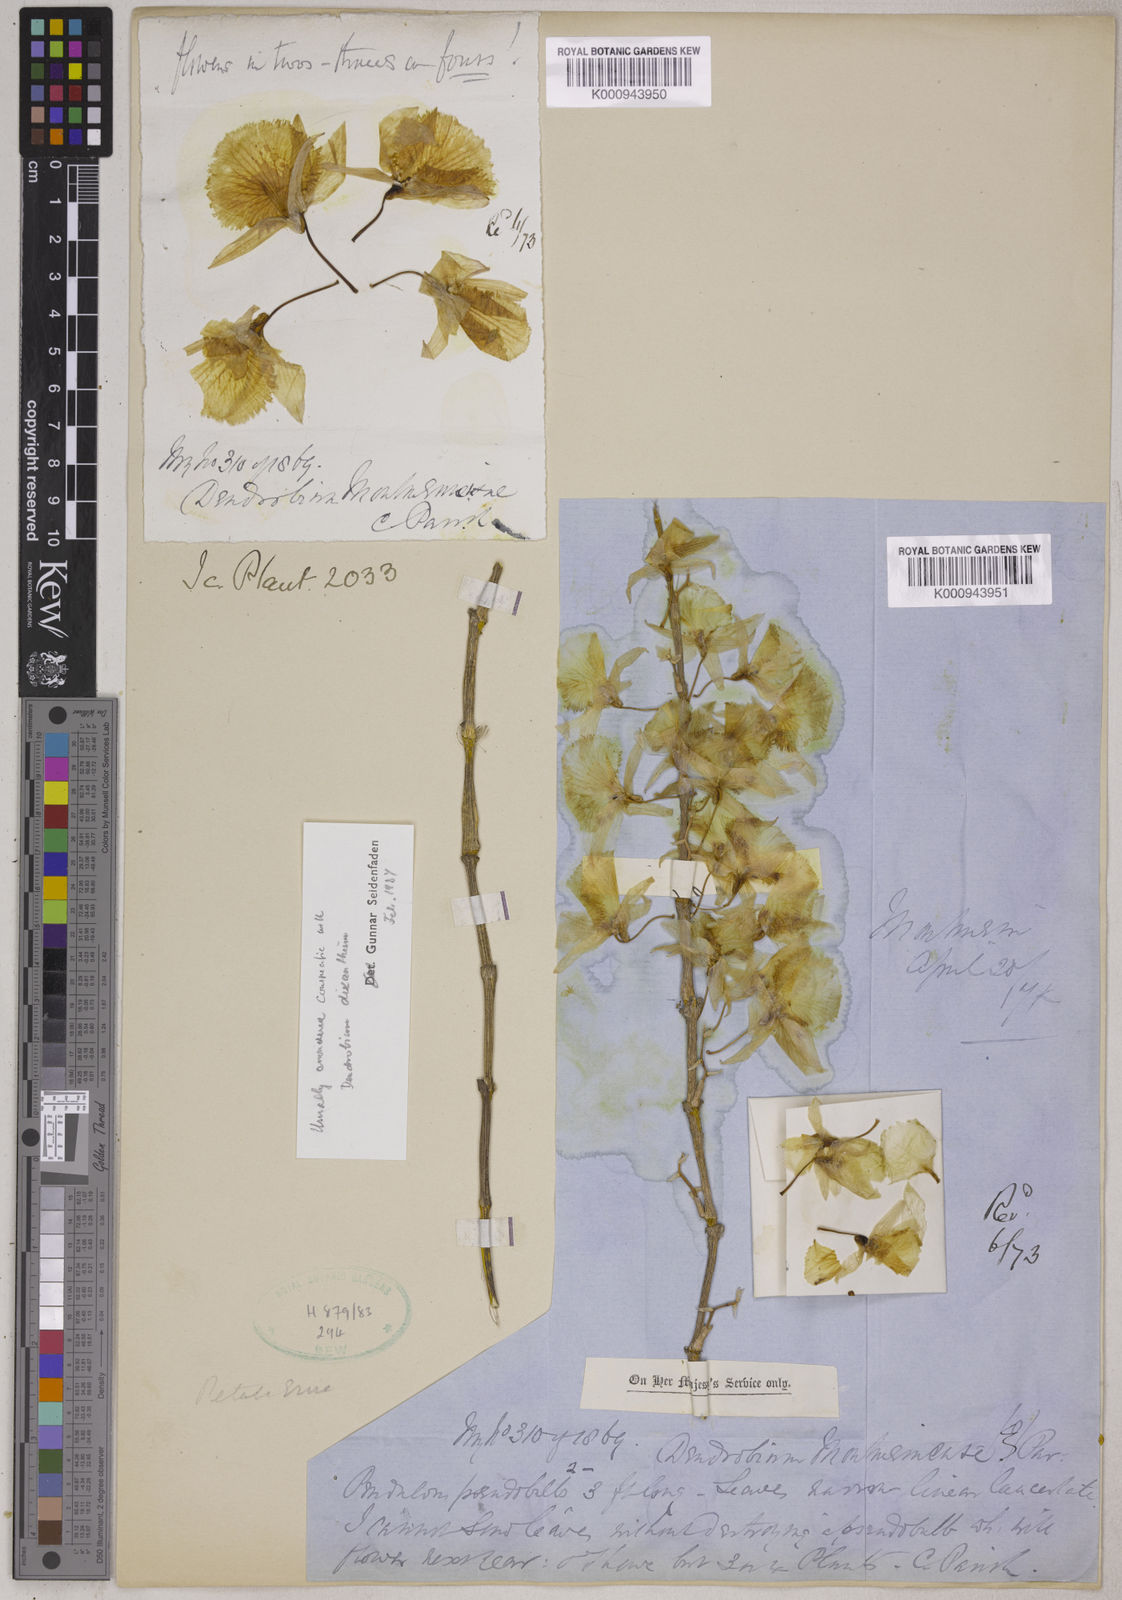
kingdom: Plantae
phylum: Tracheophyta
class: Liliopsida
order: Asparagales
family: Orchidaceae
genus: Dendrobium
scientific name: Dendrobium dixanthum
